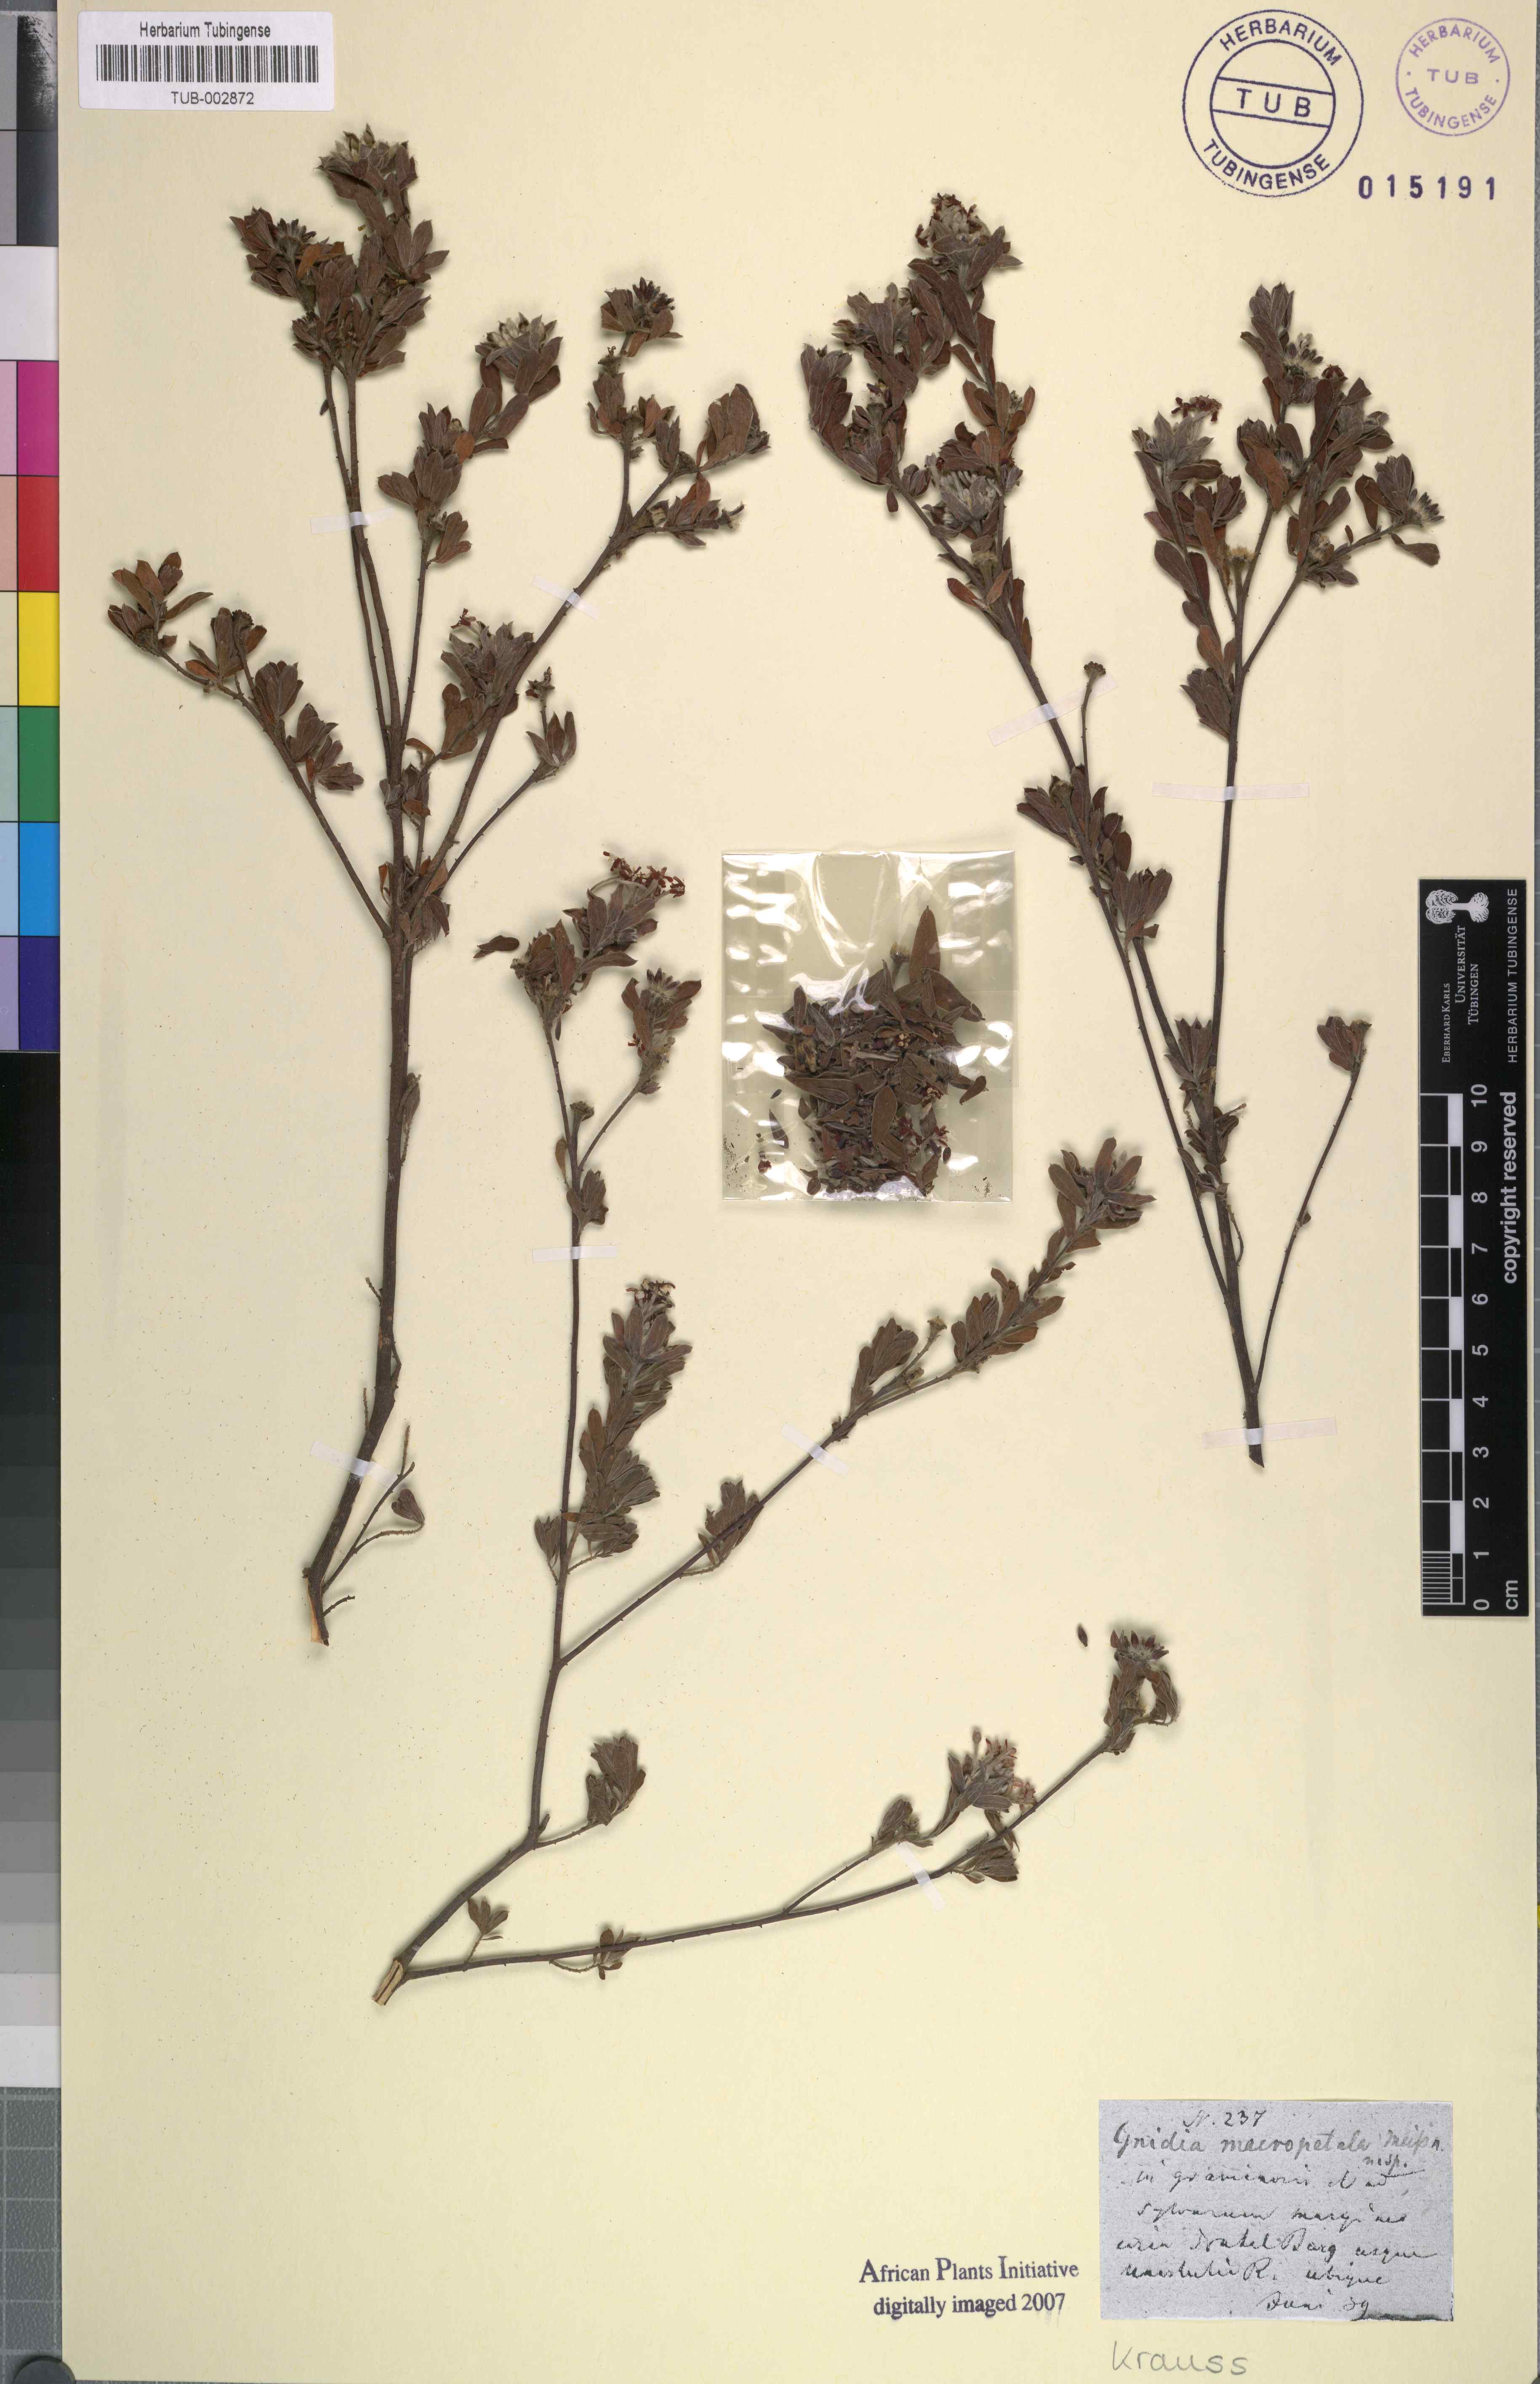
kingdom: Plantae
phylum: Tracheophyta
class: Magnoliopsida
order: Malvales
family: Thymelaeaceae
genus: Gnidia
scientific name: Gnidia macropetala
